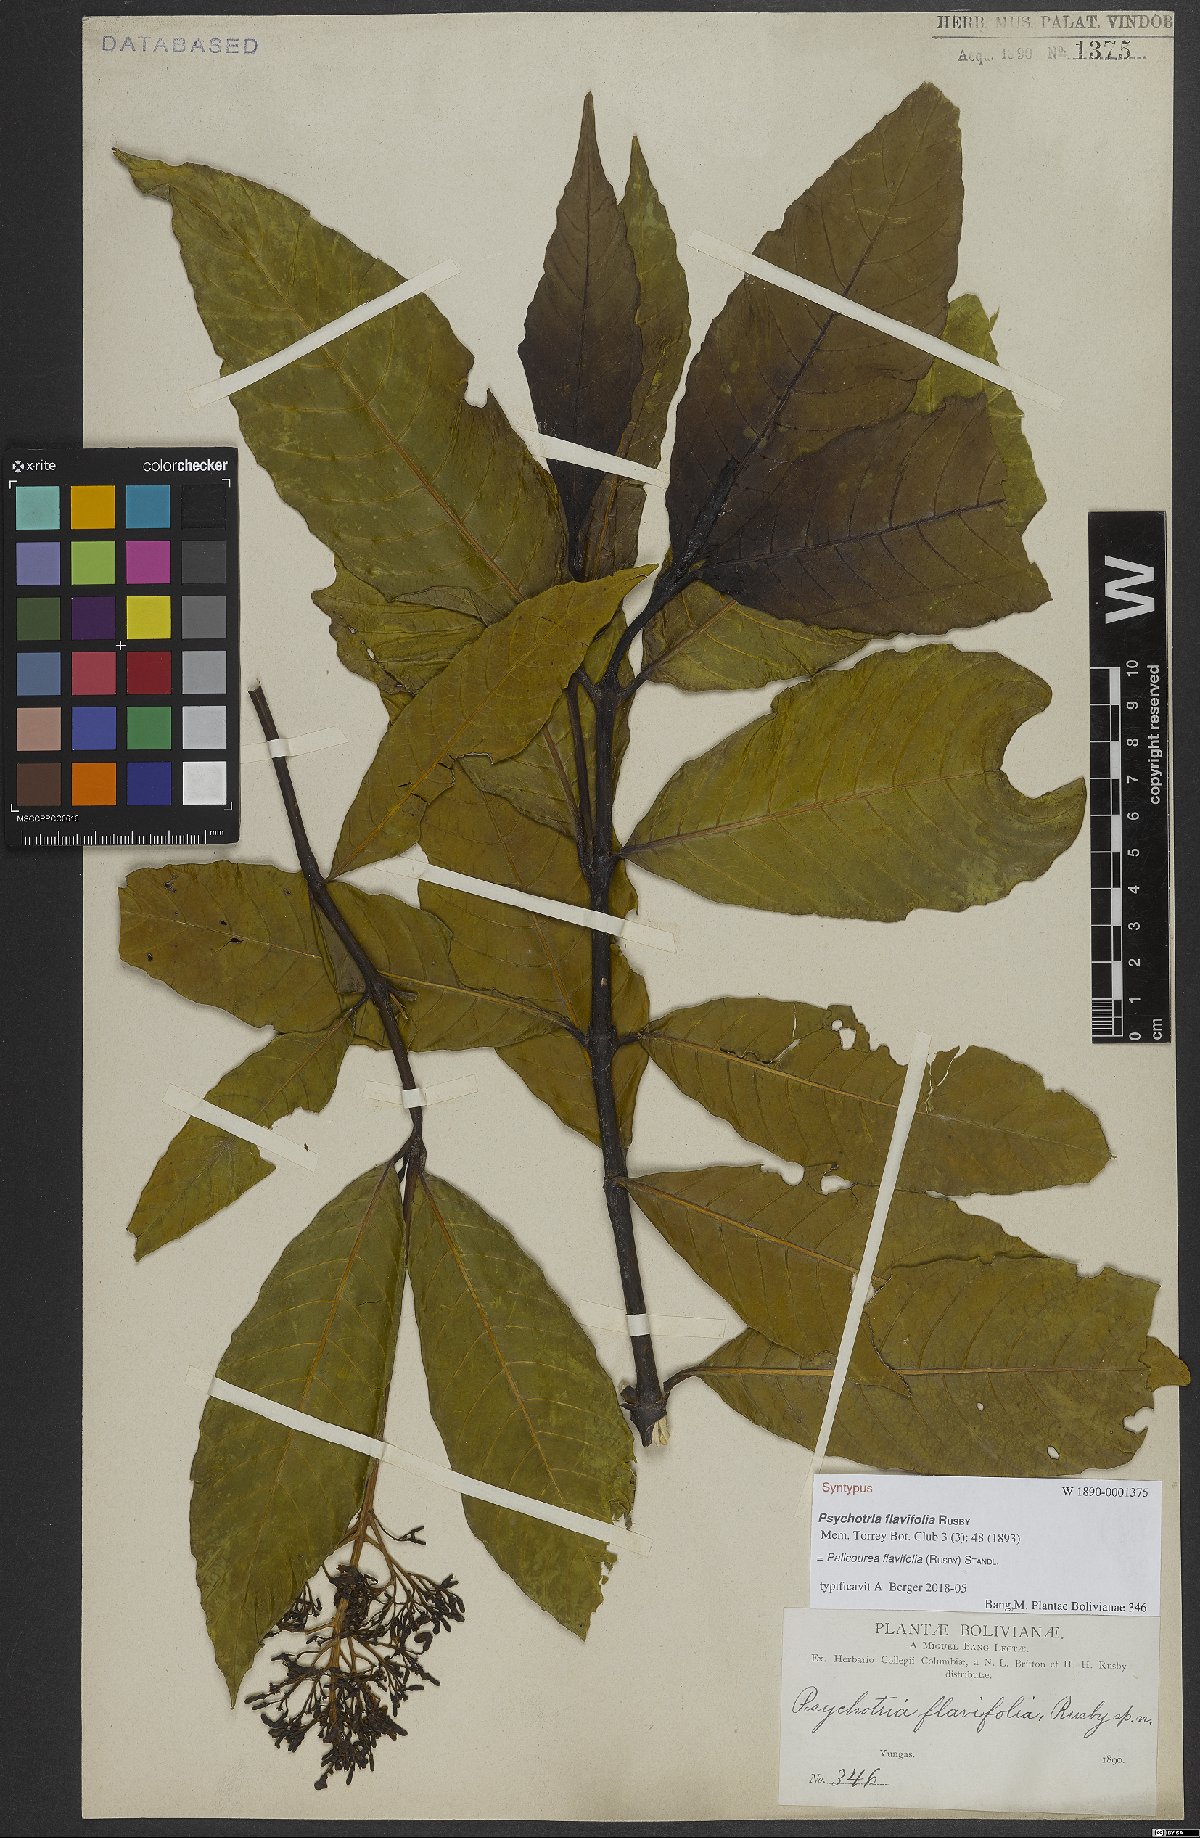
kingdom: Plantae
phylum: Tracheophyta
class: Magnoliopsida
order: Gentianales
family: Rubiaceae
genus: Palicourea
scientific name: Palicourea flavifolia
